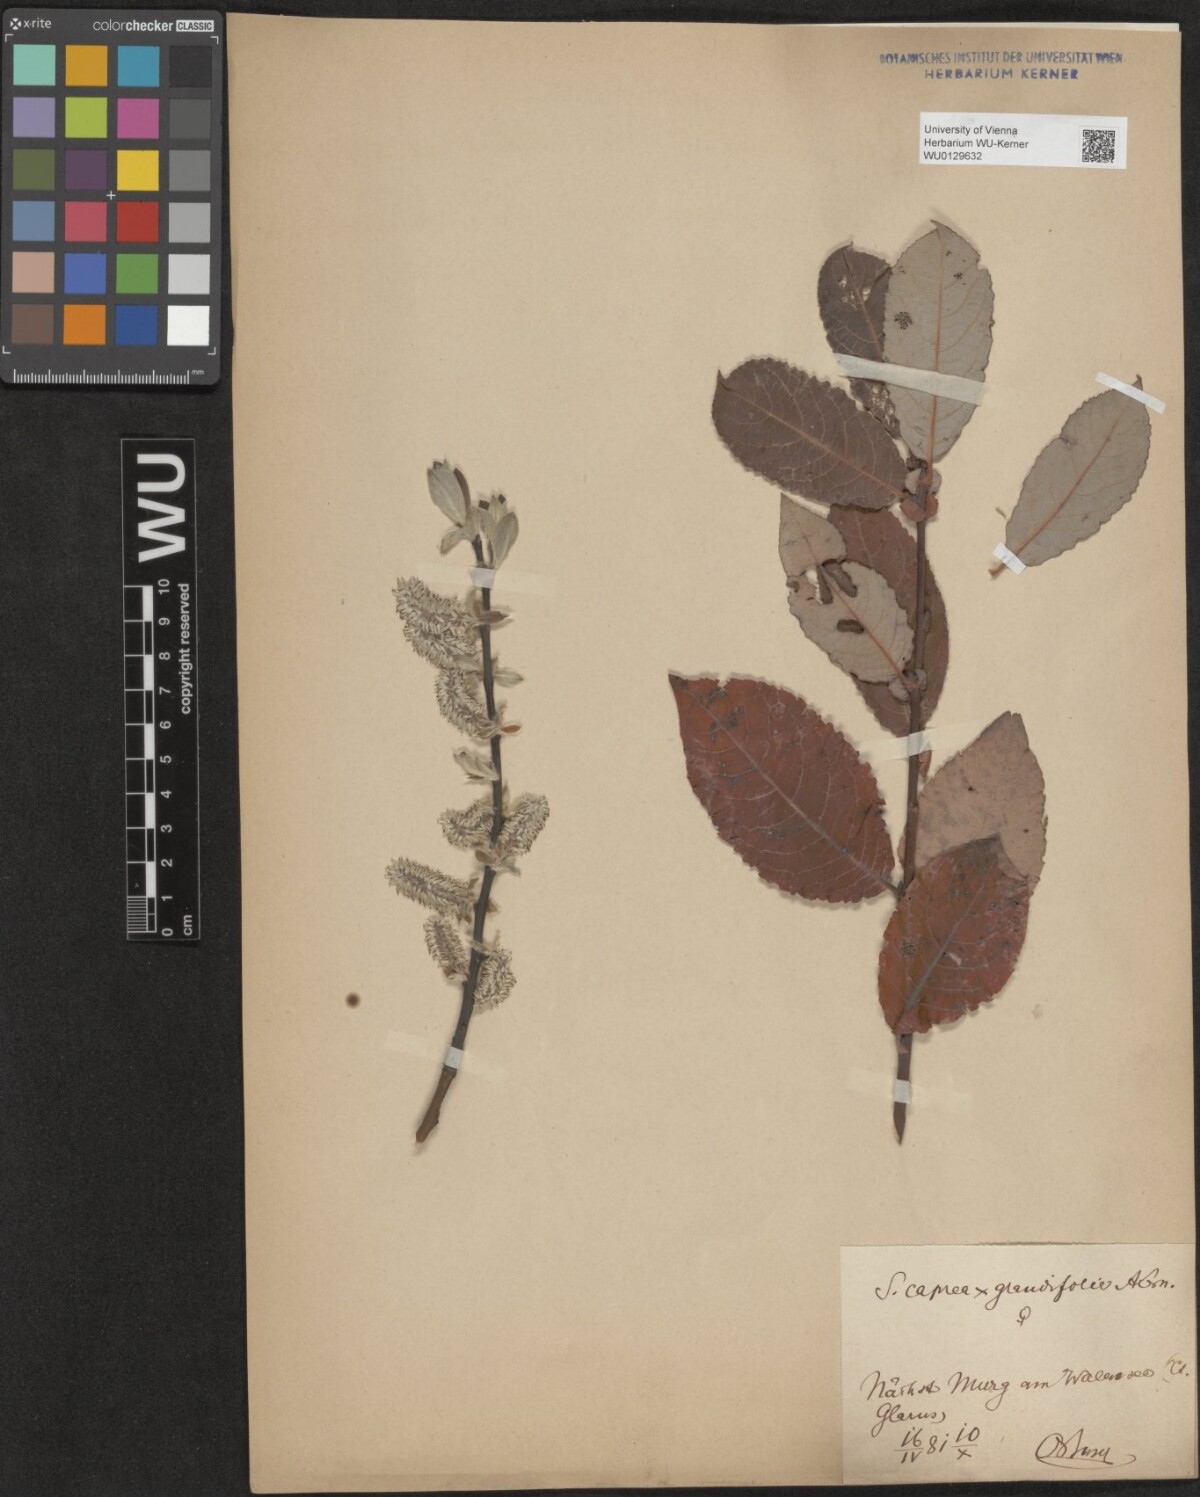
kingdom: Plantae
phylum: Tracheophyta
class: Magnoliopsida
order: Malpighiales
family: Salicaceae
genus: Salix
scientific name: Salix dendroides
